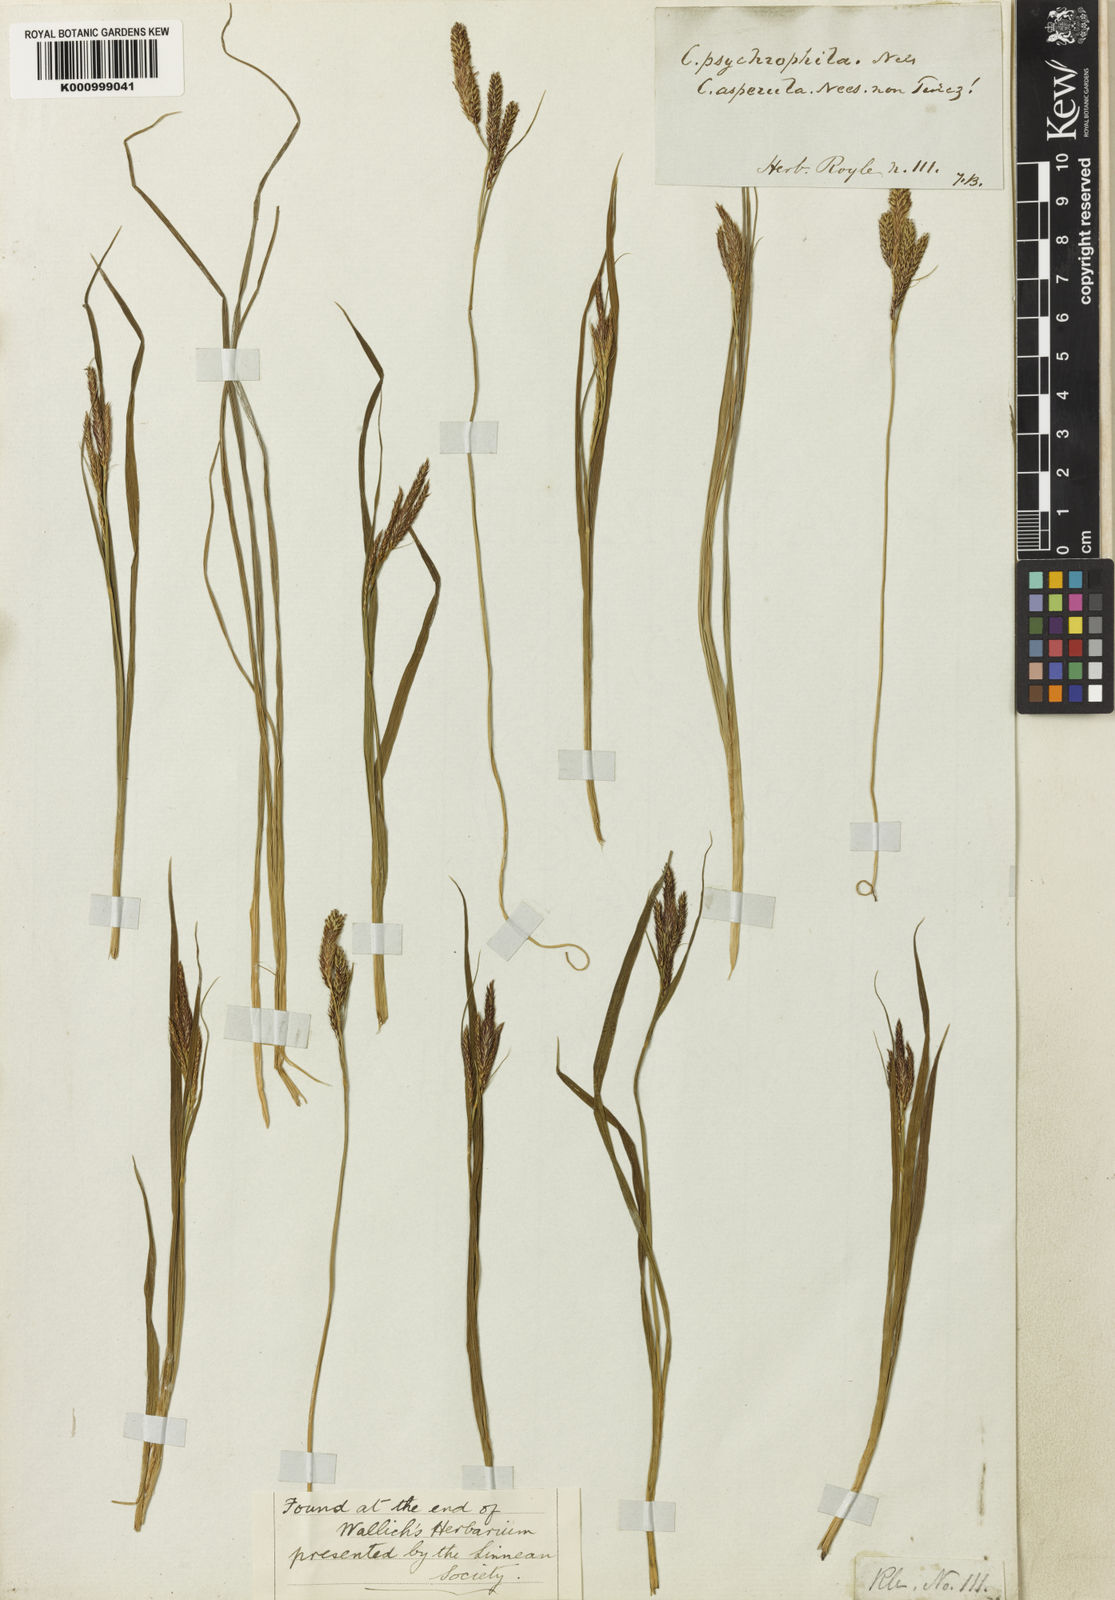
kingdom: Plantae
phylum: Tracheophyta
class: Liliopsida
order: Poales
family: Cyperaceae
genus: Carex
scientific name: Carex psychrophila
